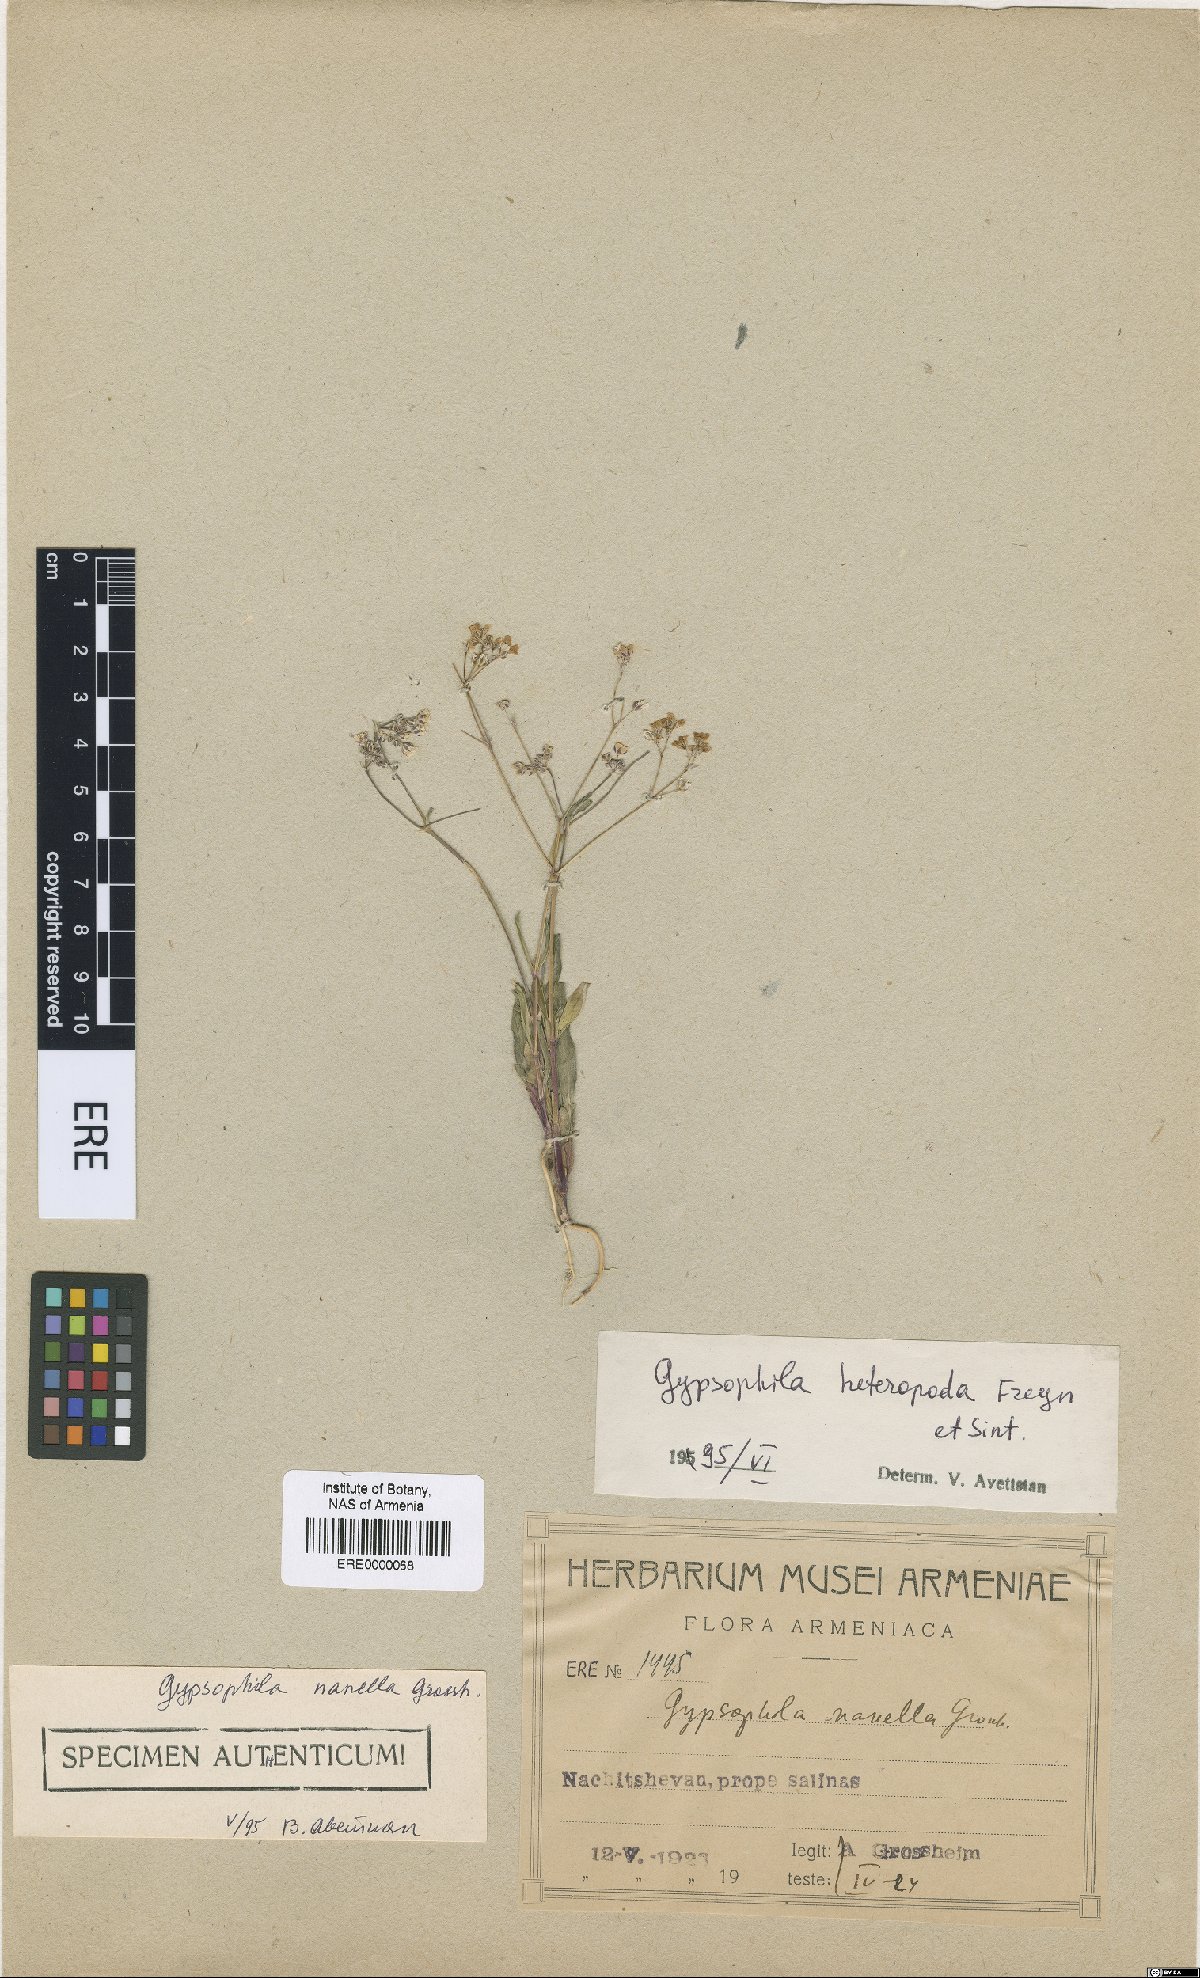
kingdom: Plantae
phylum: Tracheophyta
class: Magnoliopsida
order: Caryophyllales
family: Caryophyllaceae
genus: Gypsophila
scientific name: Gypsophila heteropoda
